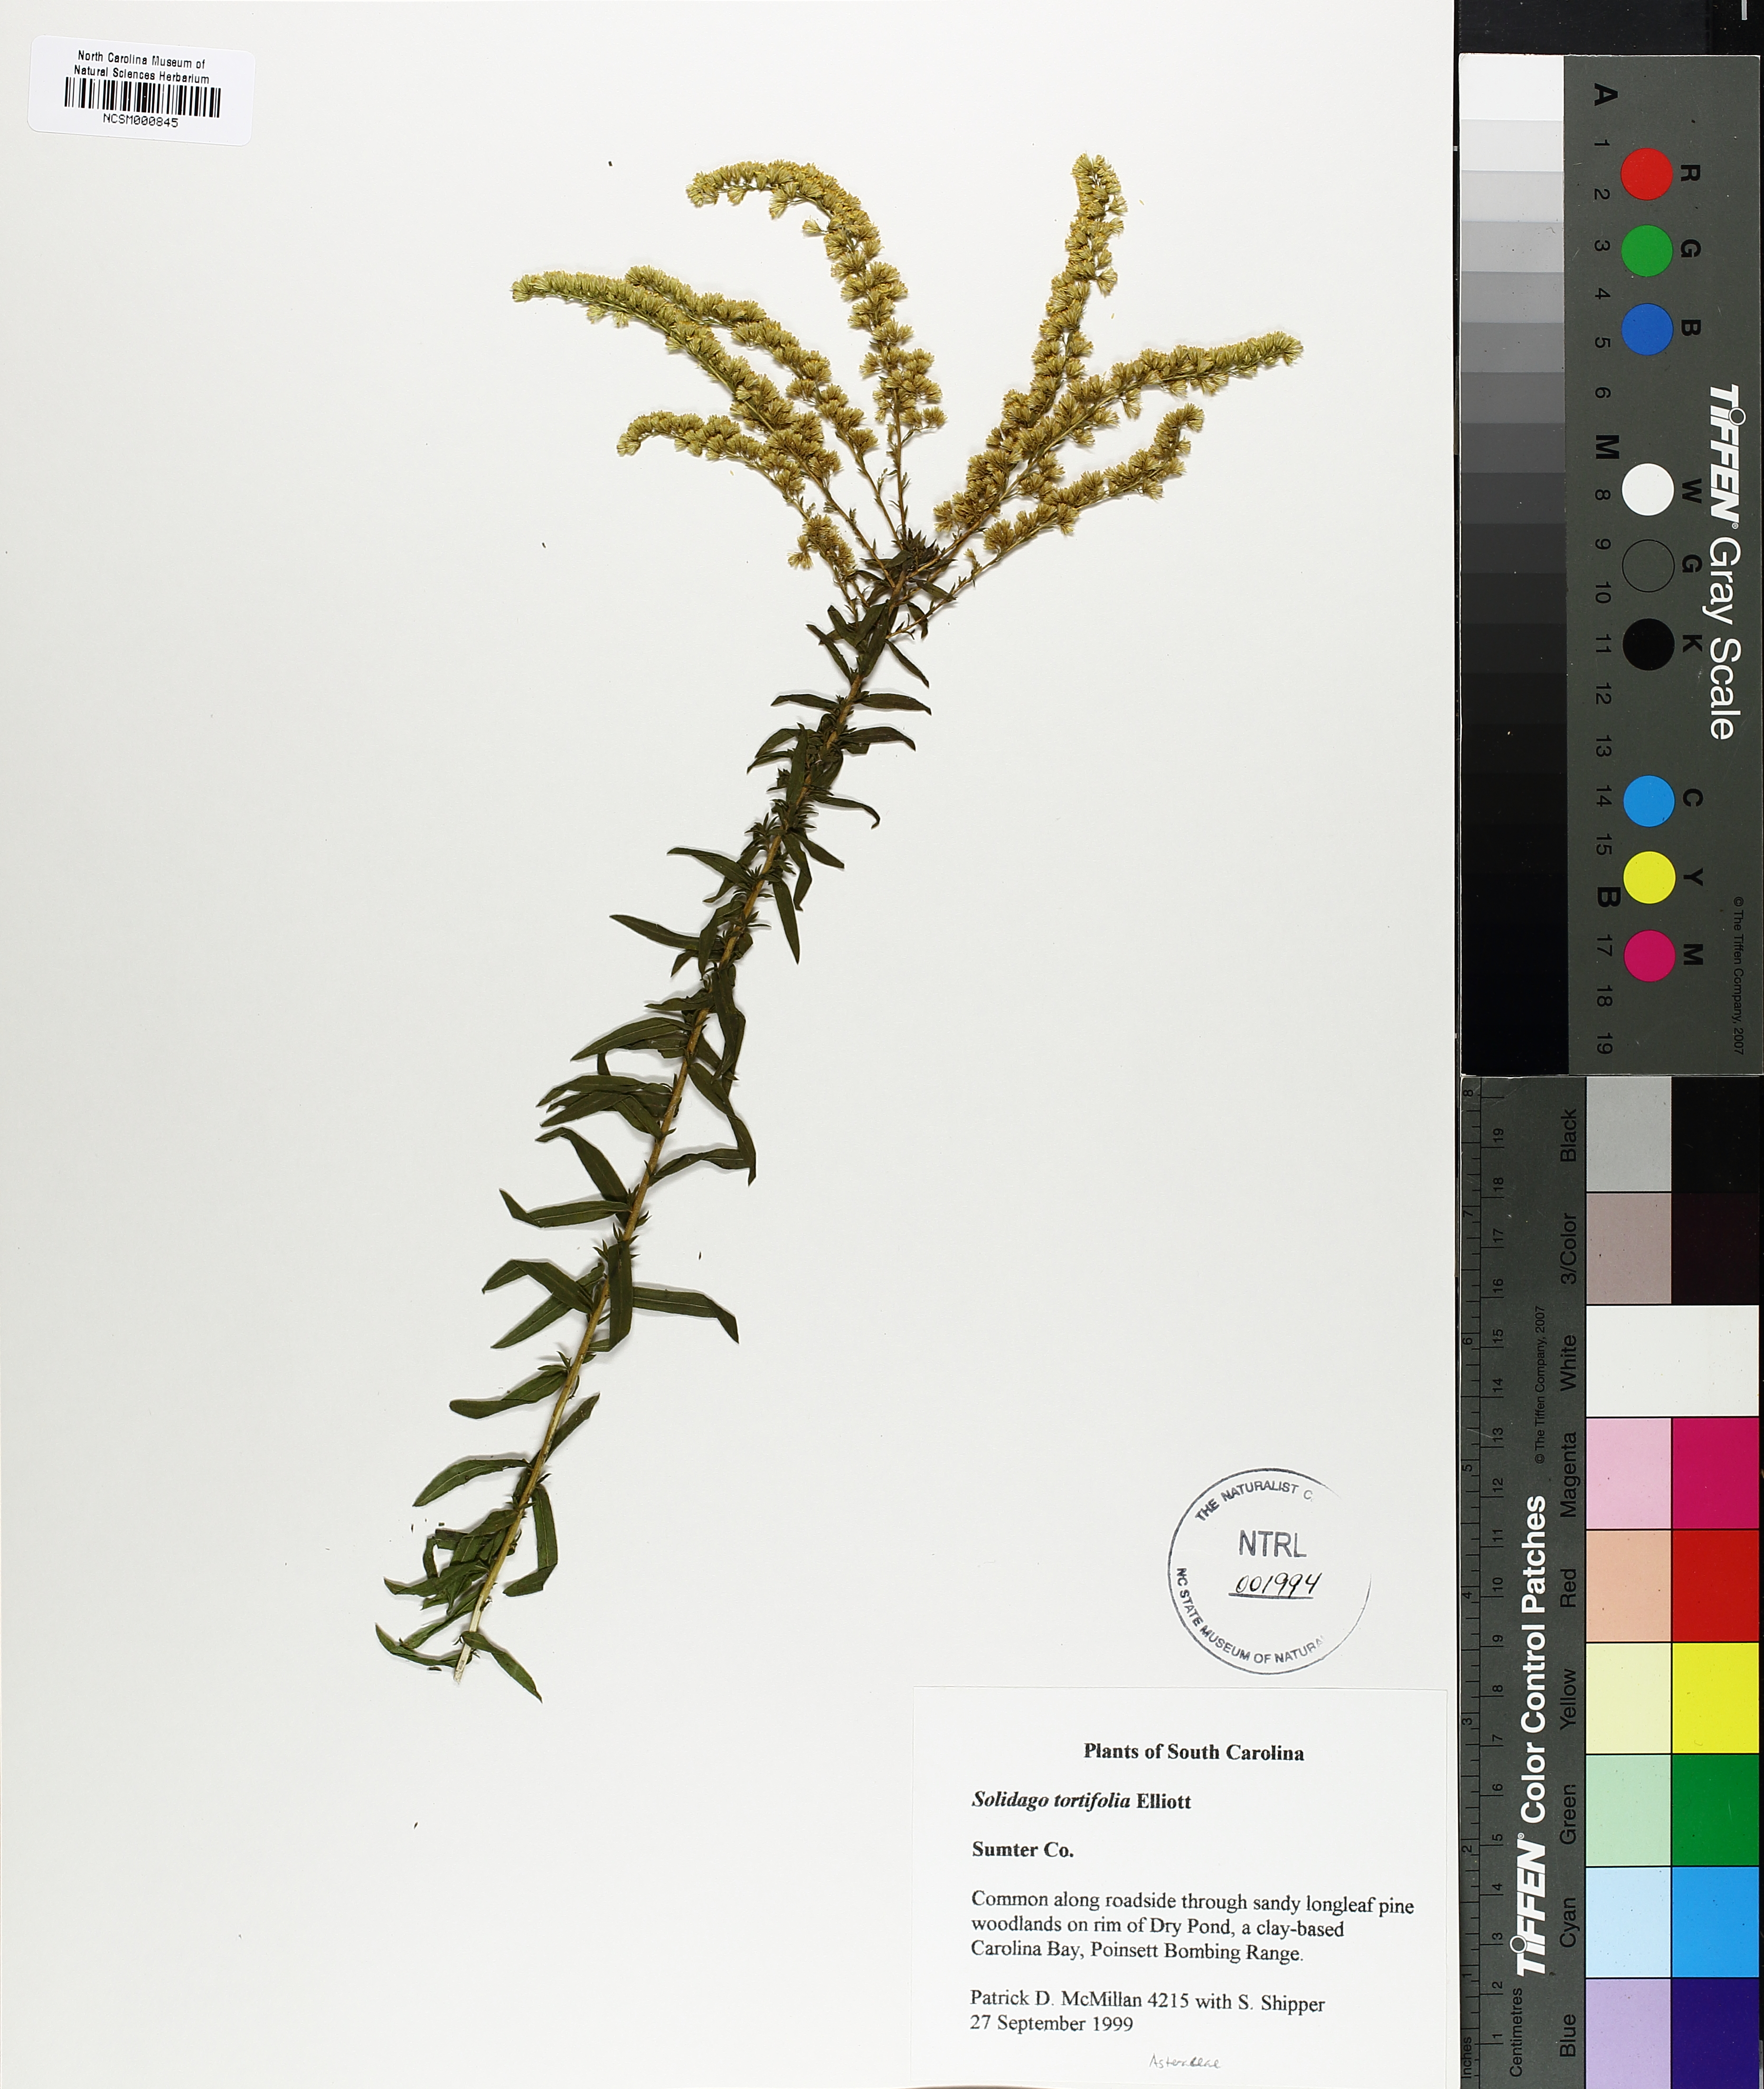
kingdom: Plantae
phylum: Tracheophyta
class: Magnoliopsida
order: Asterales
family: Asteraceae
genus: Solidago
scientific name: Solidago tortifolia
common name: Twisted-leaf goldenrod
